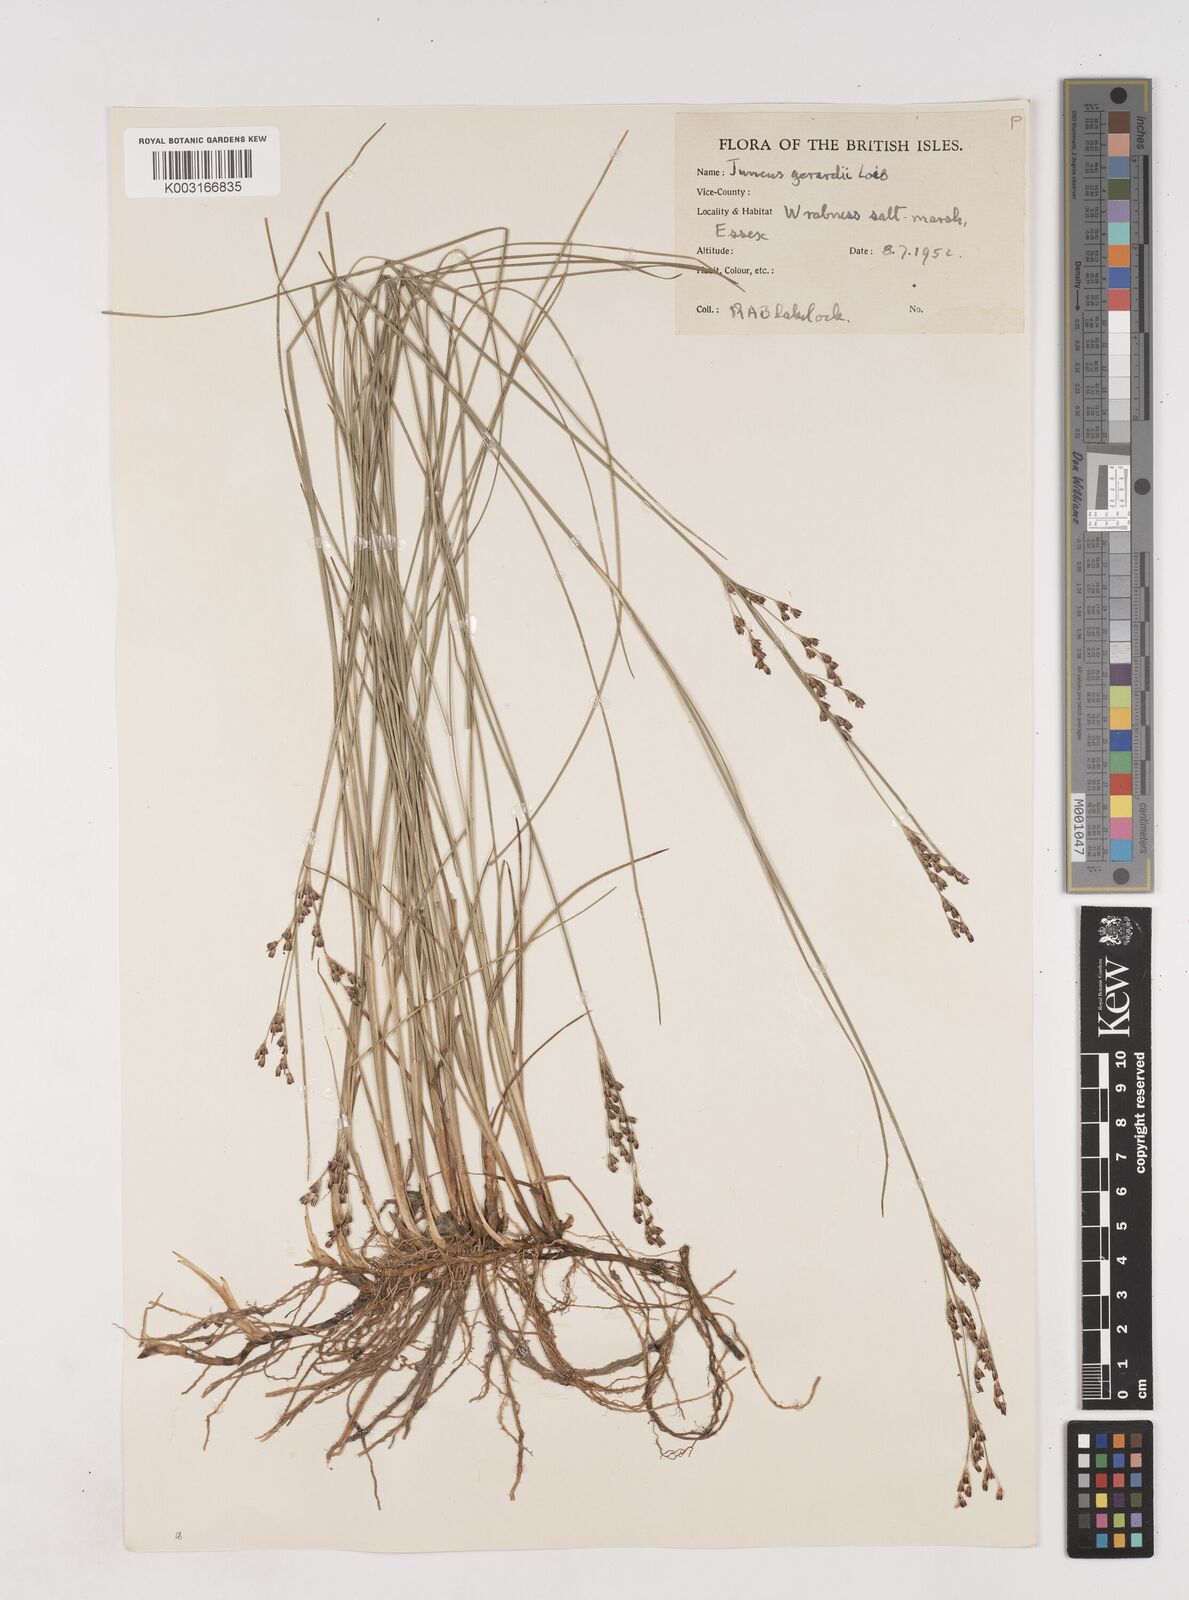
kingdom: Plantae
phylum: Tracheophyta
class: Liliopsida
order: Poales
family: Juncaceae
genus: Juncus
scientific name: Juncus gerardi
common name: Saltmarsh rush
